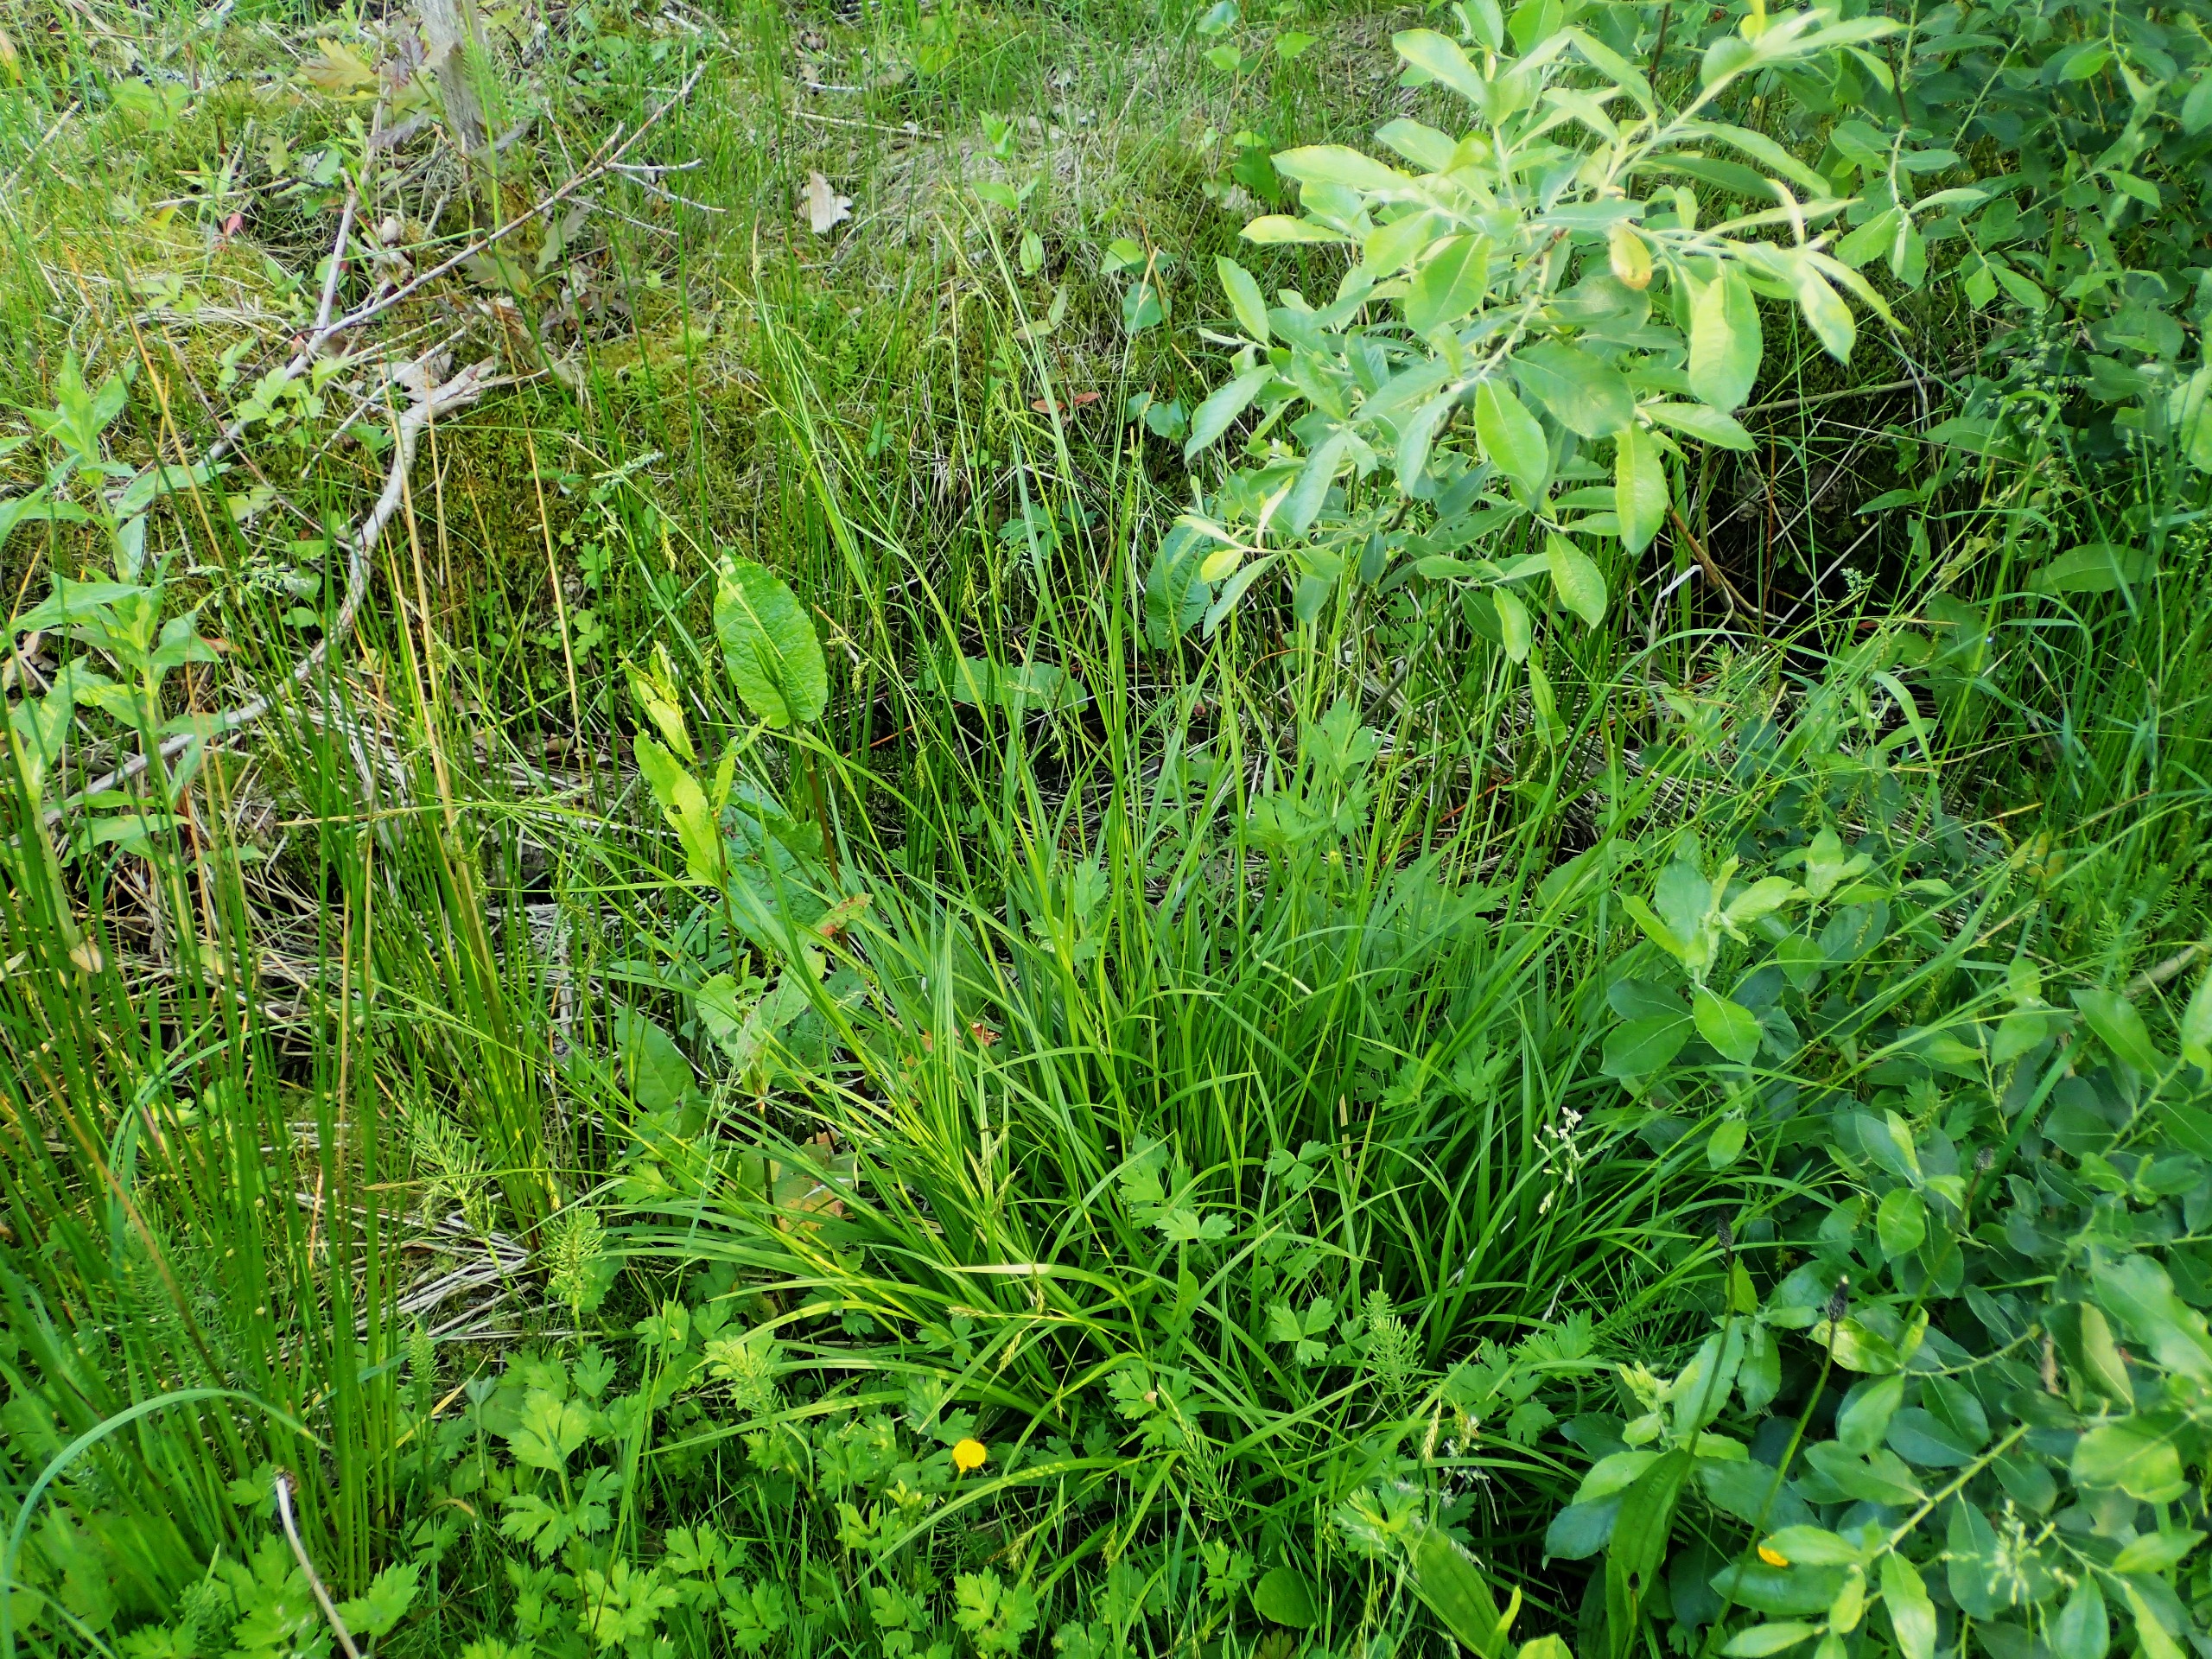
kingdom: Plantae
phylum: Tracheophyta
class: Liliopsida
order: Poales
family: Cyperaceae
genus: Carex
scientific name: Carex sylvatica
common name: Skov-star
